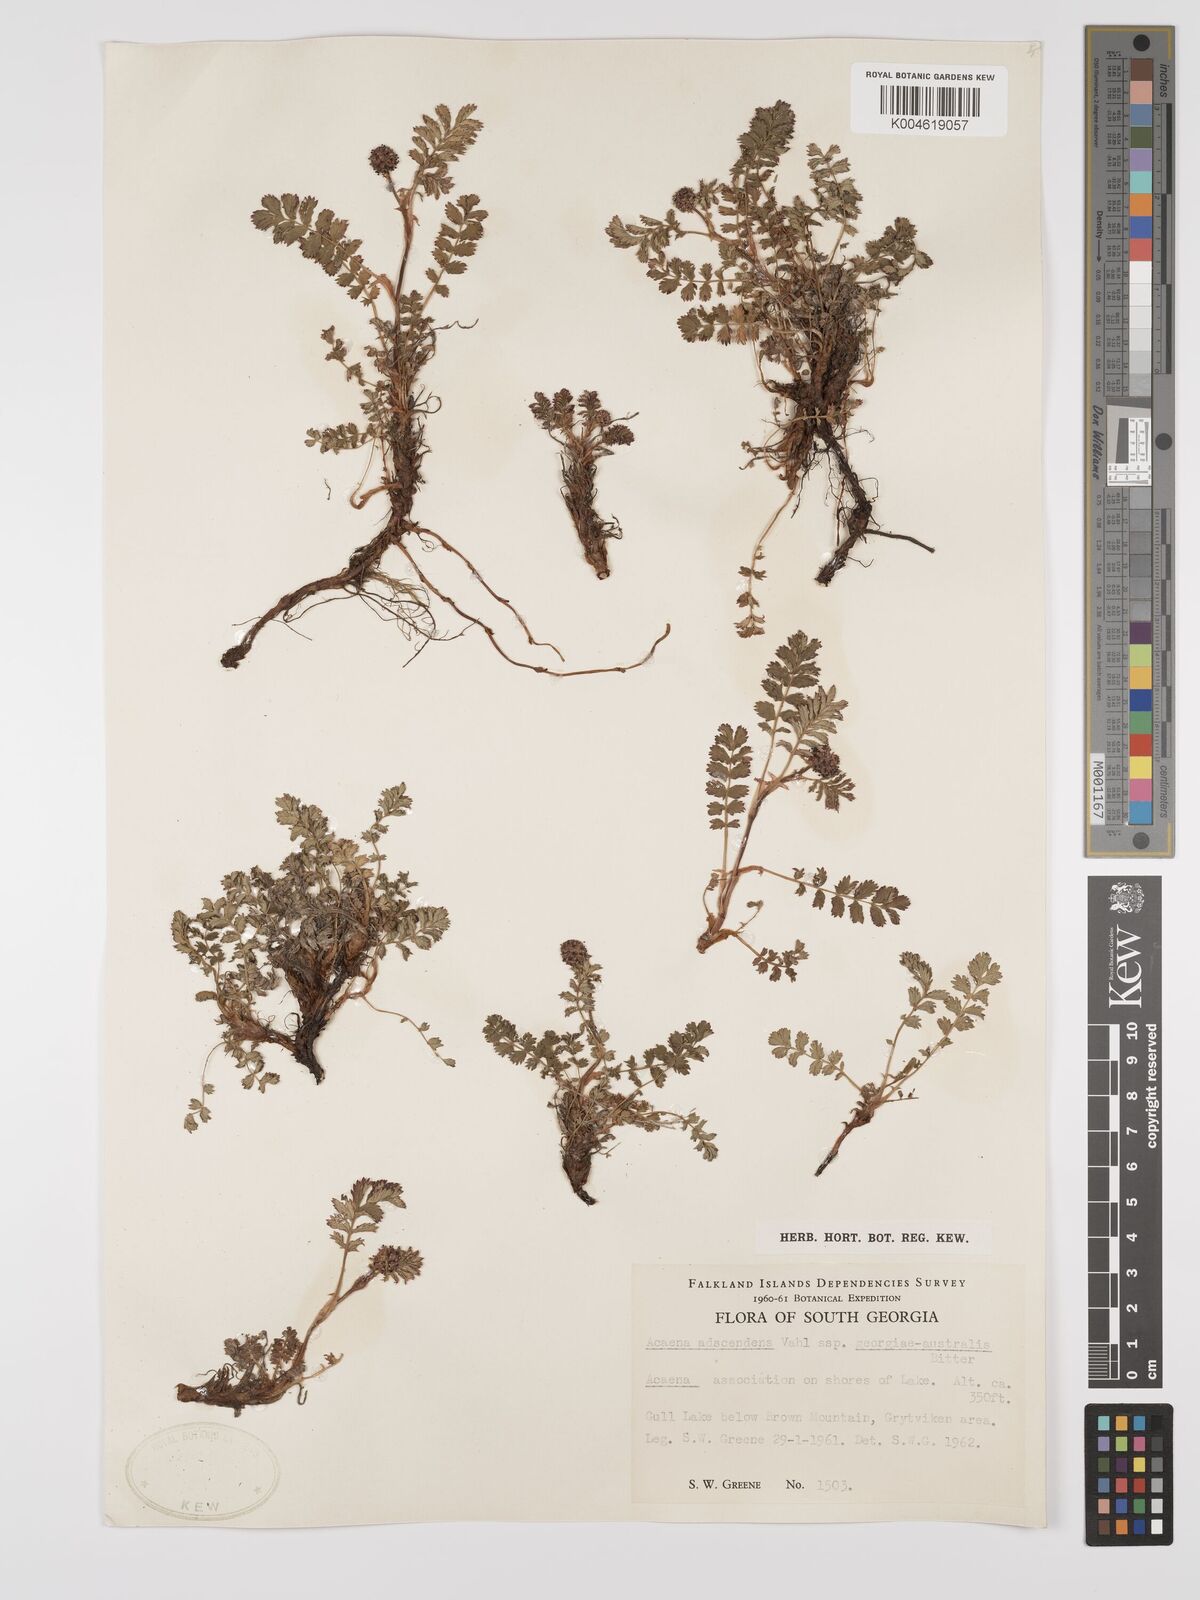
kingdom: Plantae
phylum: Tracheophyta
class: Magnoliopsida
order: Rosales
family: Rosaceae
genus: Acaena
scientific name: Acaena magellanica
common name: New zealand burr
